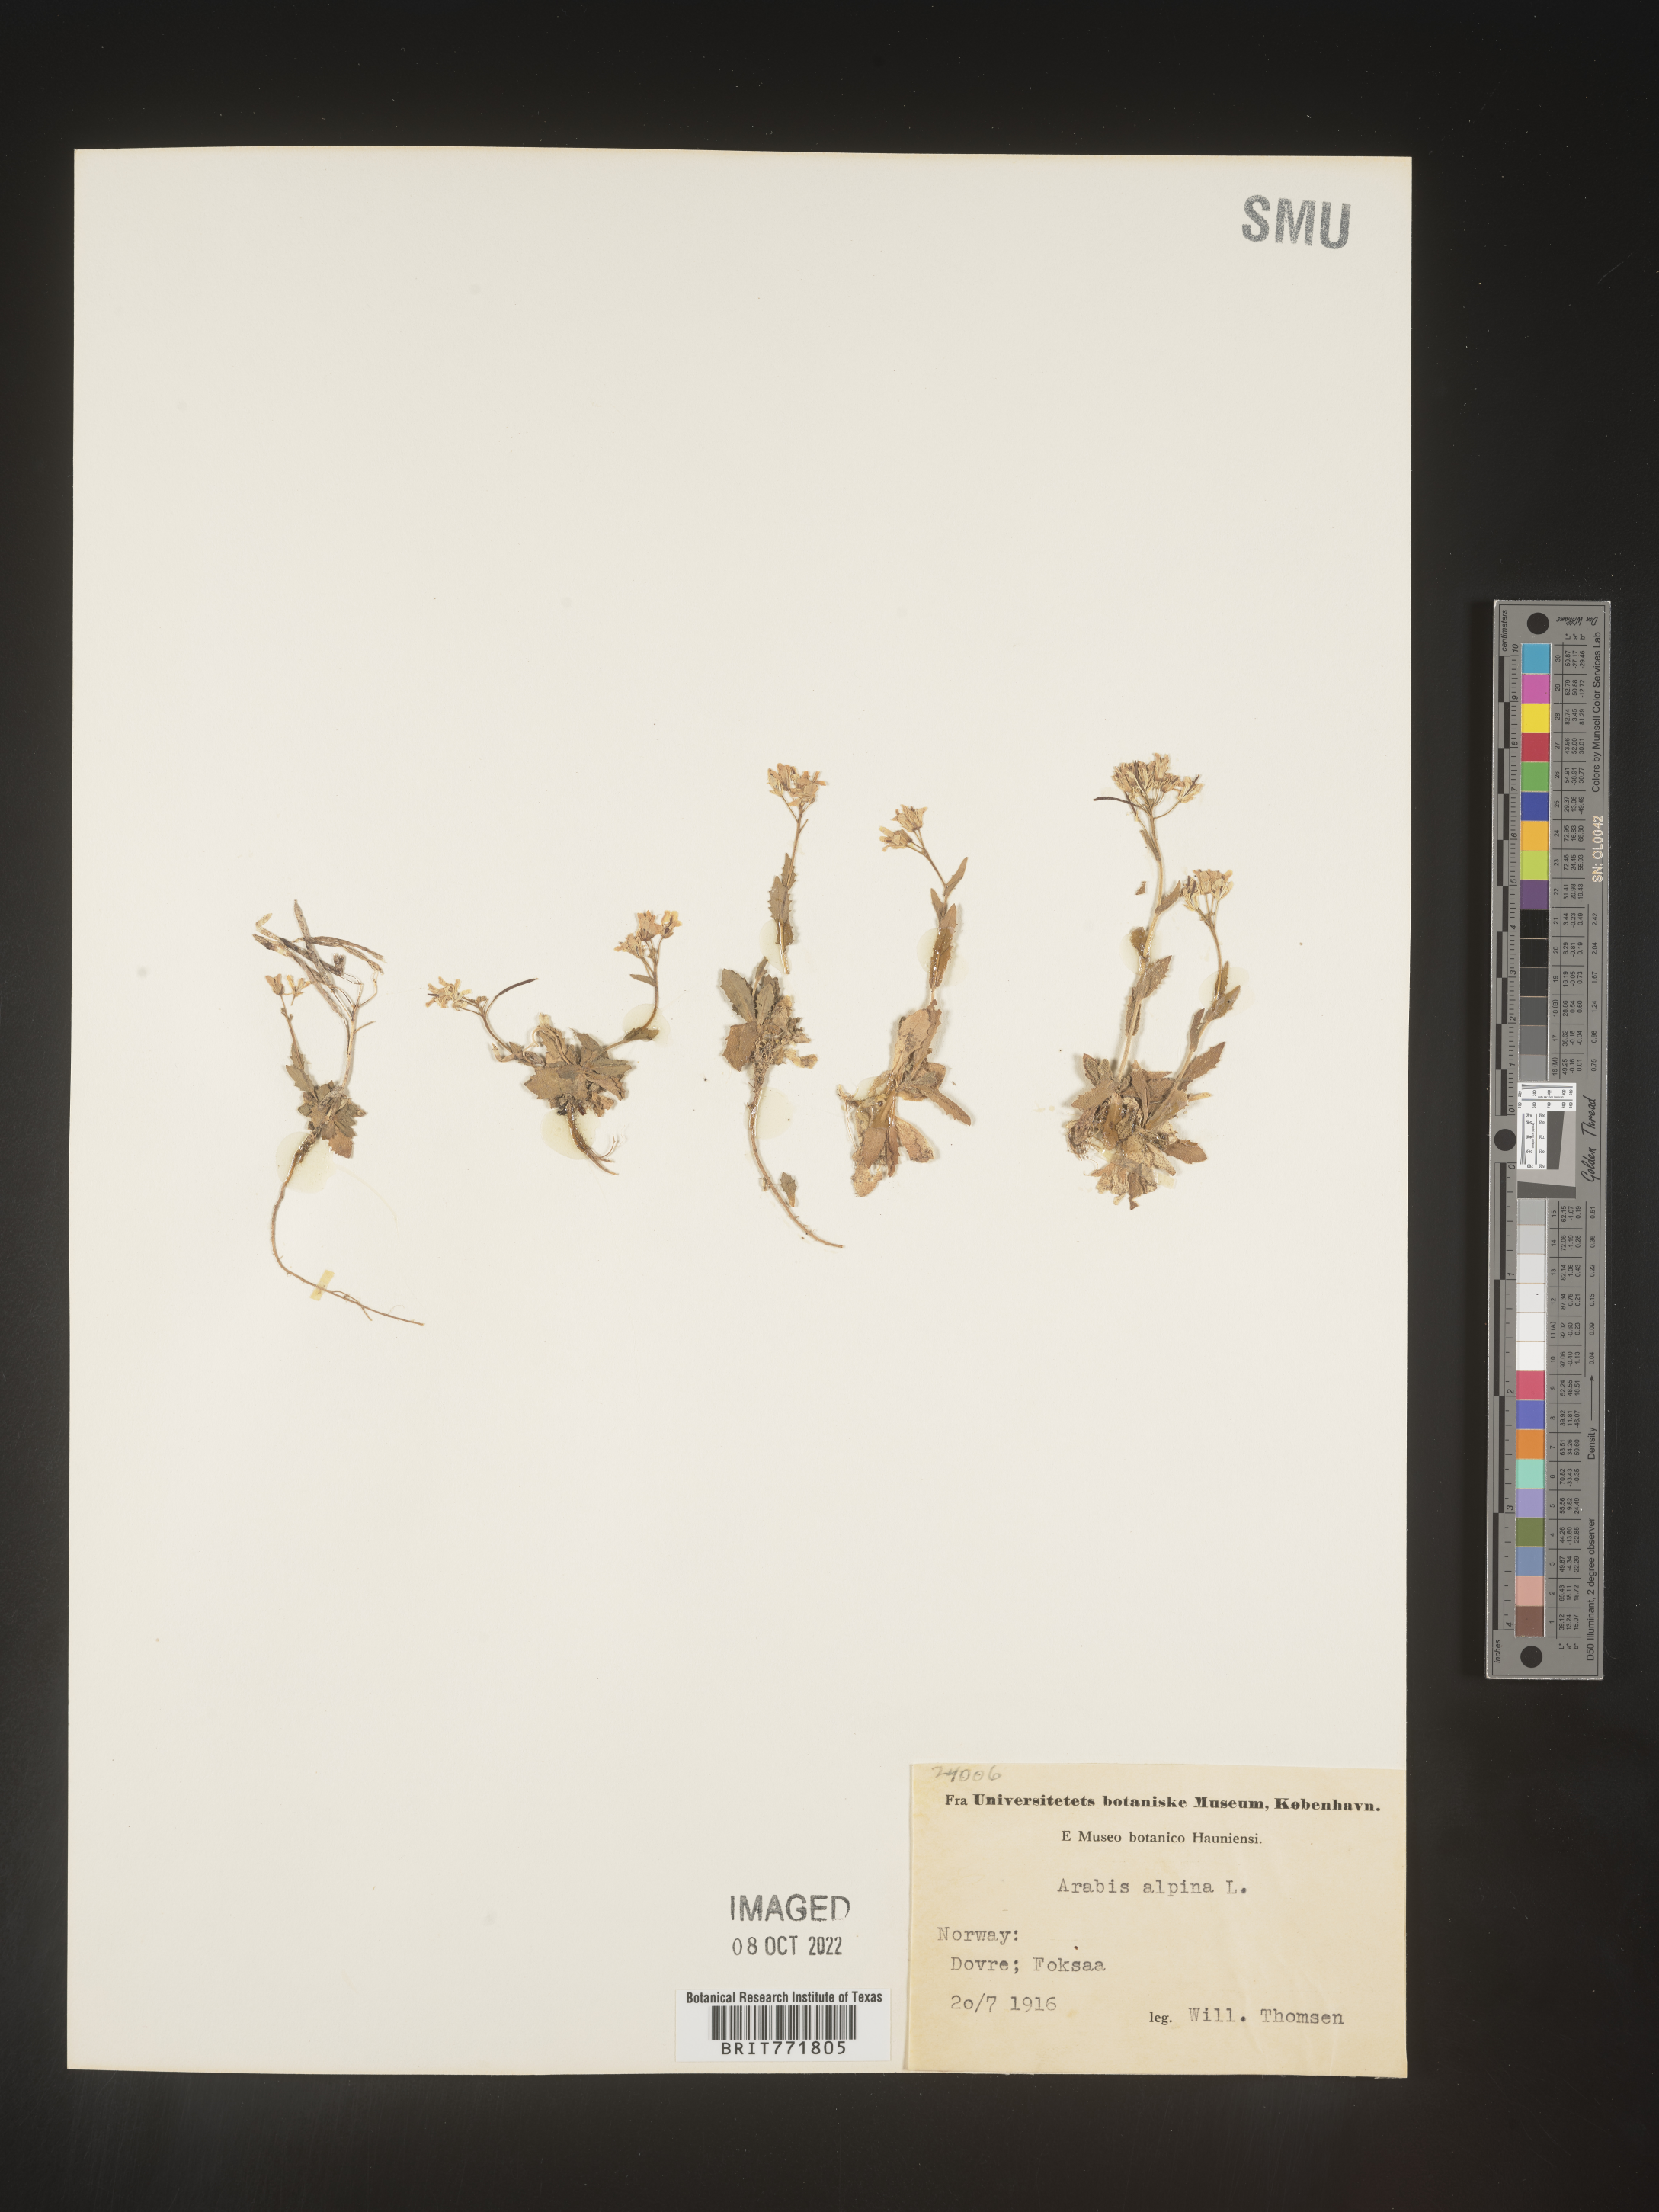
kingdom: Plantae
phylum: Tracheophyta
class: Magnoliopsida
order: Brassicales
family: Brassicaceae
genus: Arabis
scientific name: Arabis
